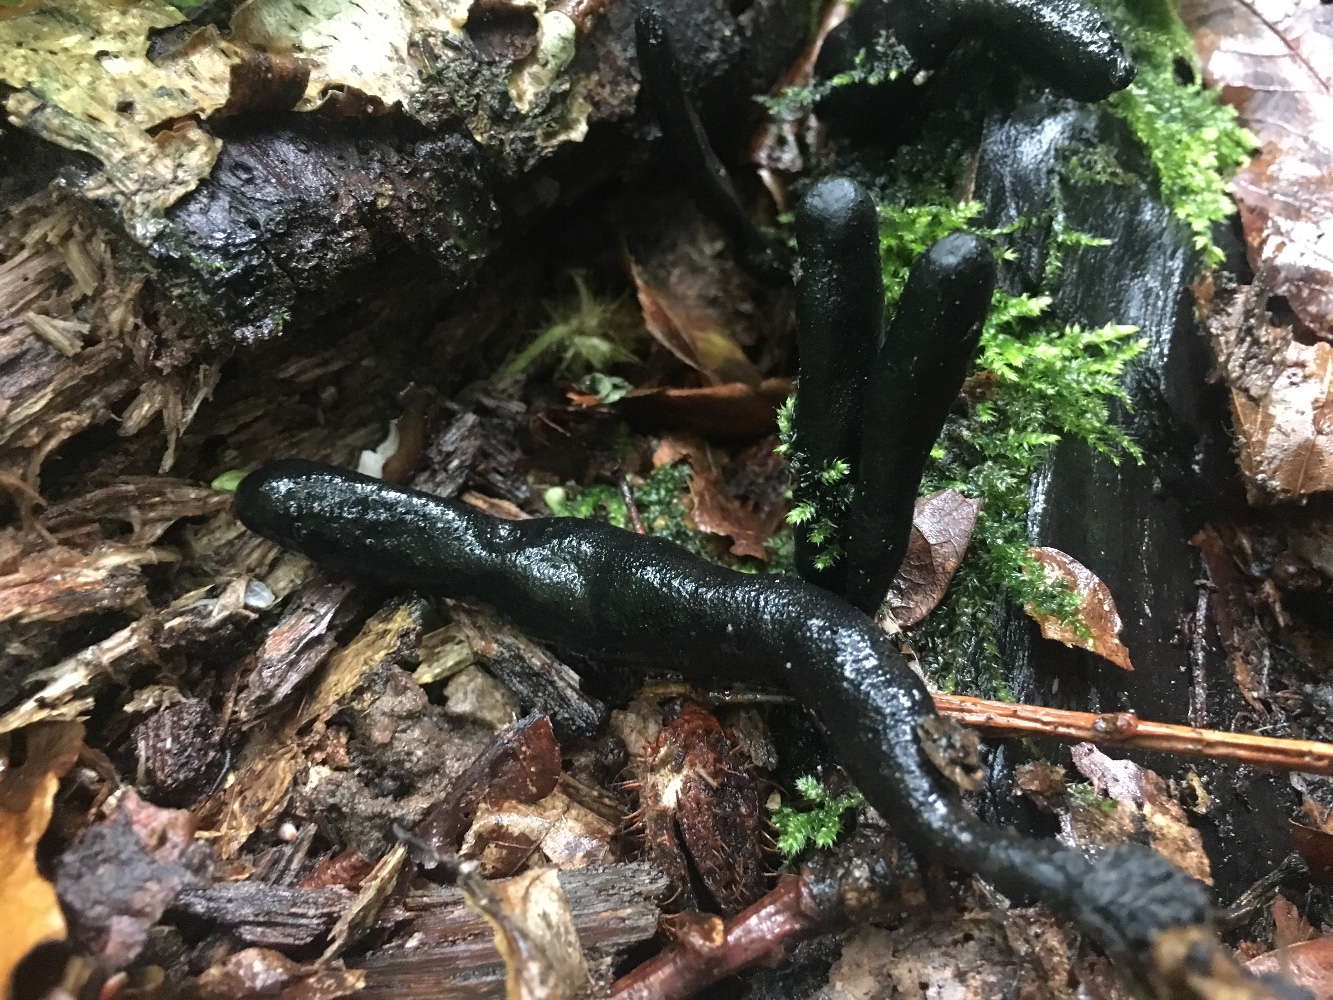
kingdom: Fungi
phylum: Ascomycota
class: Sordariomycetes
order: Xylariales
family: Xylariaceae
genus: Xylaria
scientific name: Xylaria longipes
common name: slank stødsvamp
